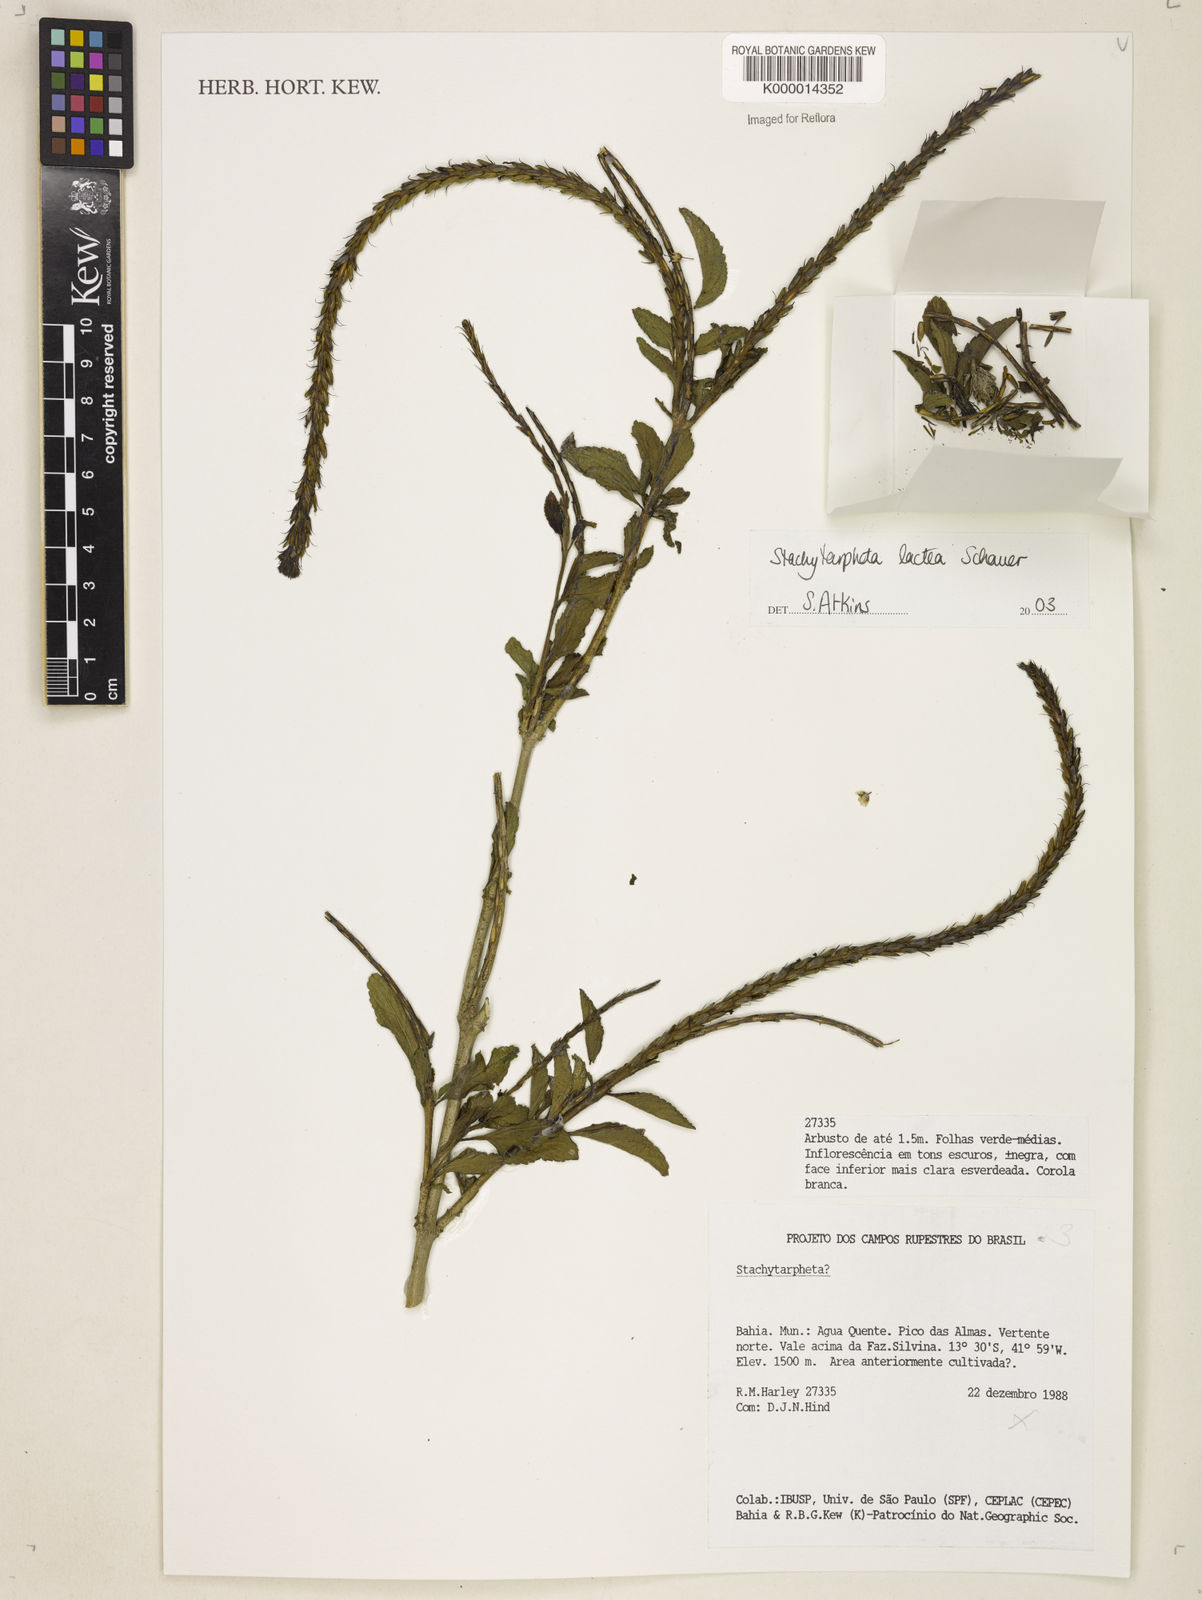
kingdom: Plantae
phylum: Tracheophyta
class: Magnoliopsida
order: Lamiales
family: Verbenaceae
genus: Stachytarpheta
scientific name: Stachytarpheta polyura
